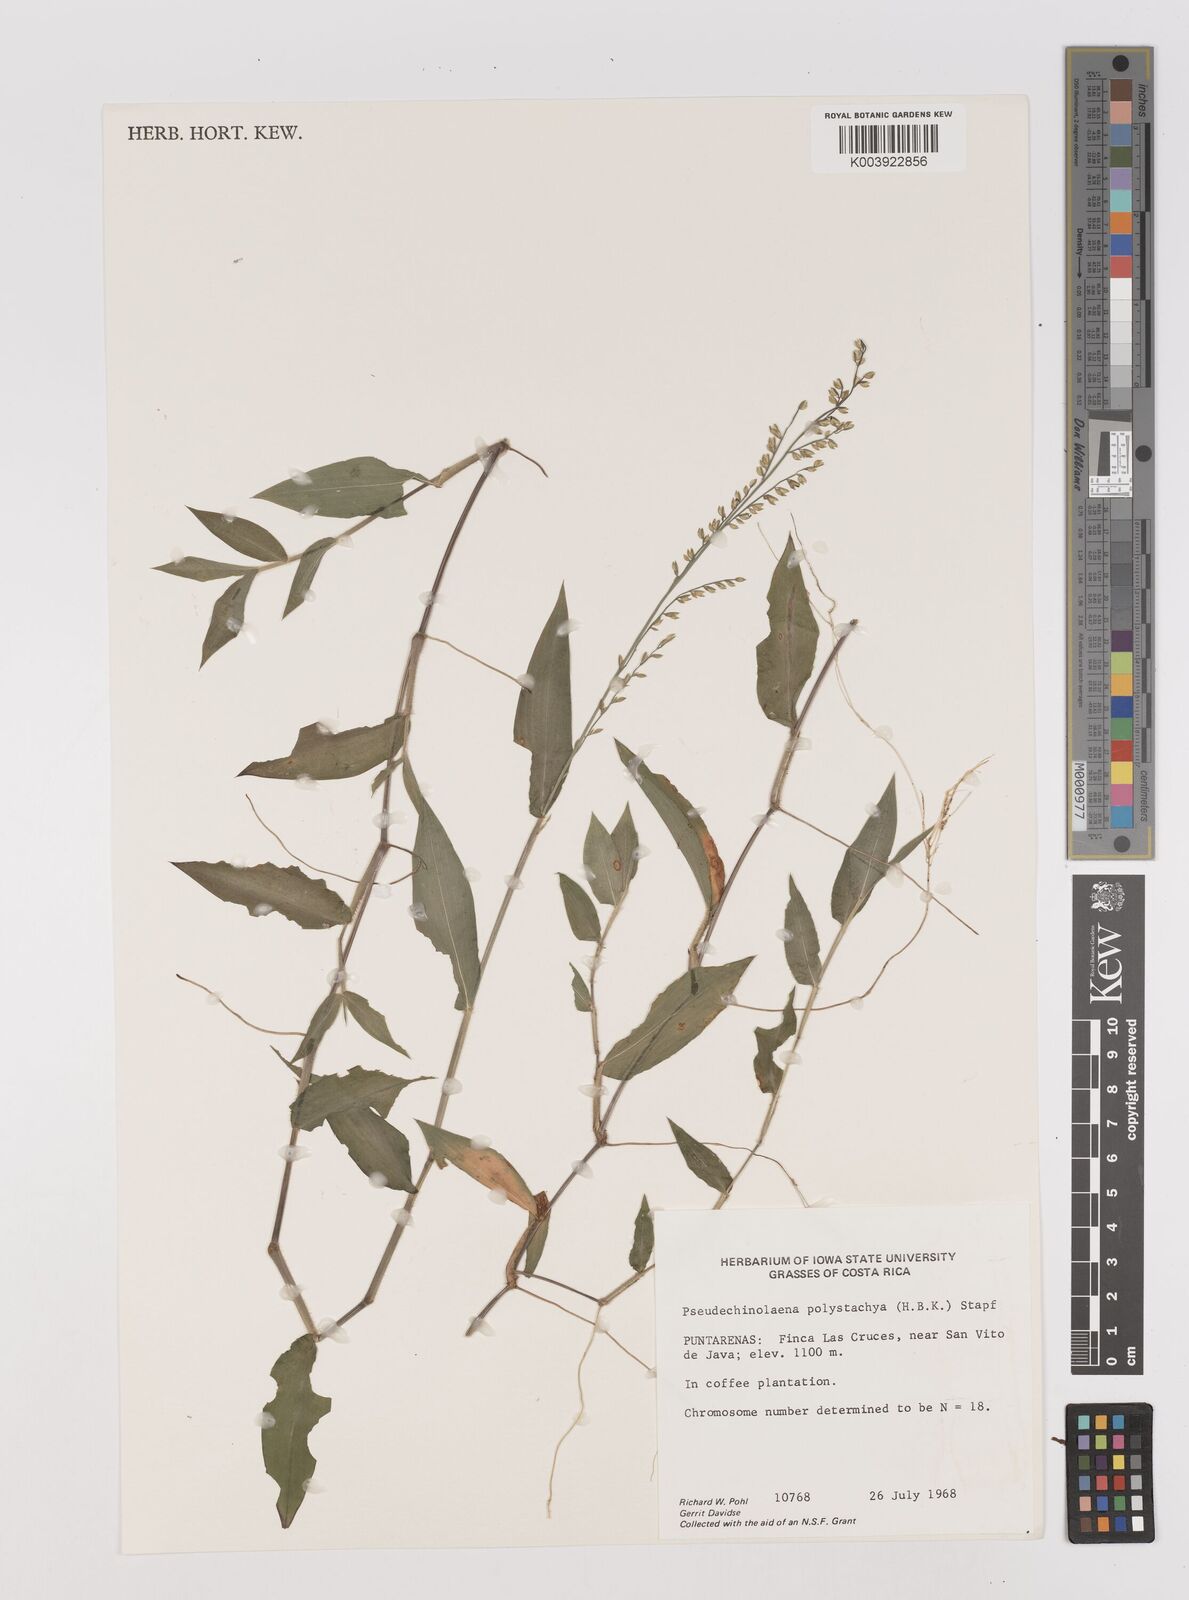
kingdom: Plantae
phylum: Tracheophyta
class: Liliopsida
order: Poales
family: Poaceae
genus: Pseudechinolaena
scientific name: Pseudechinolaena polystachya
